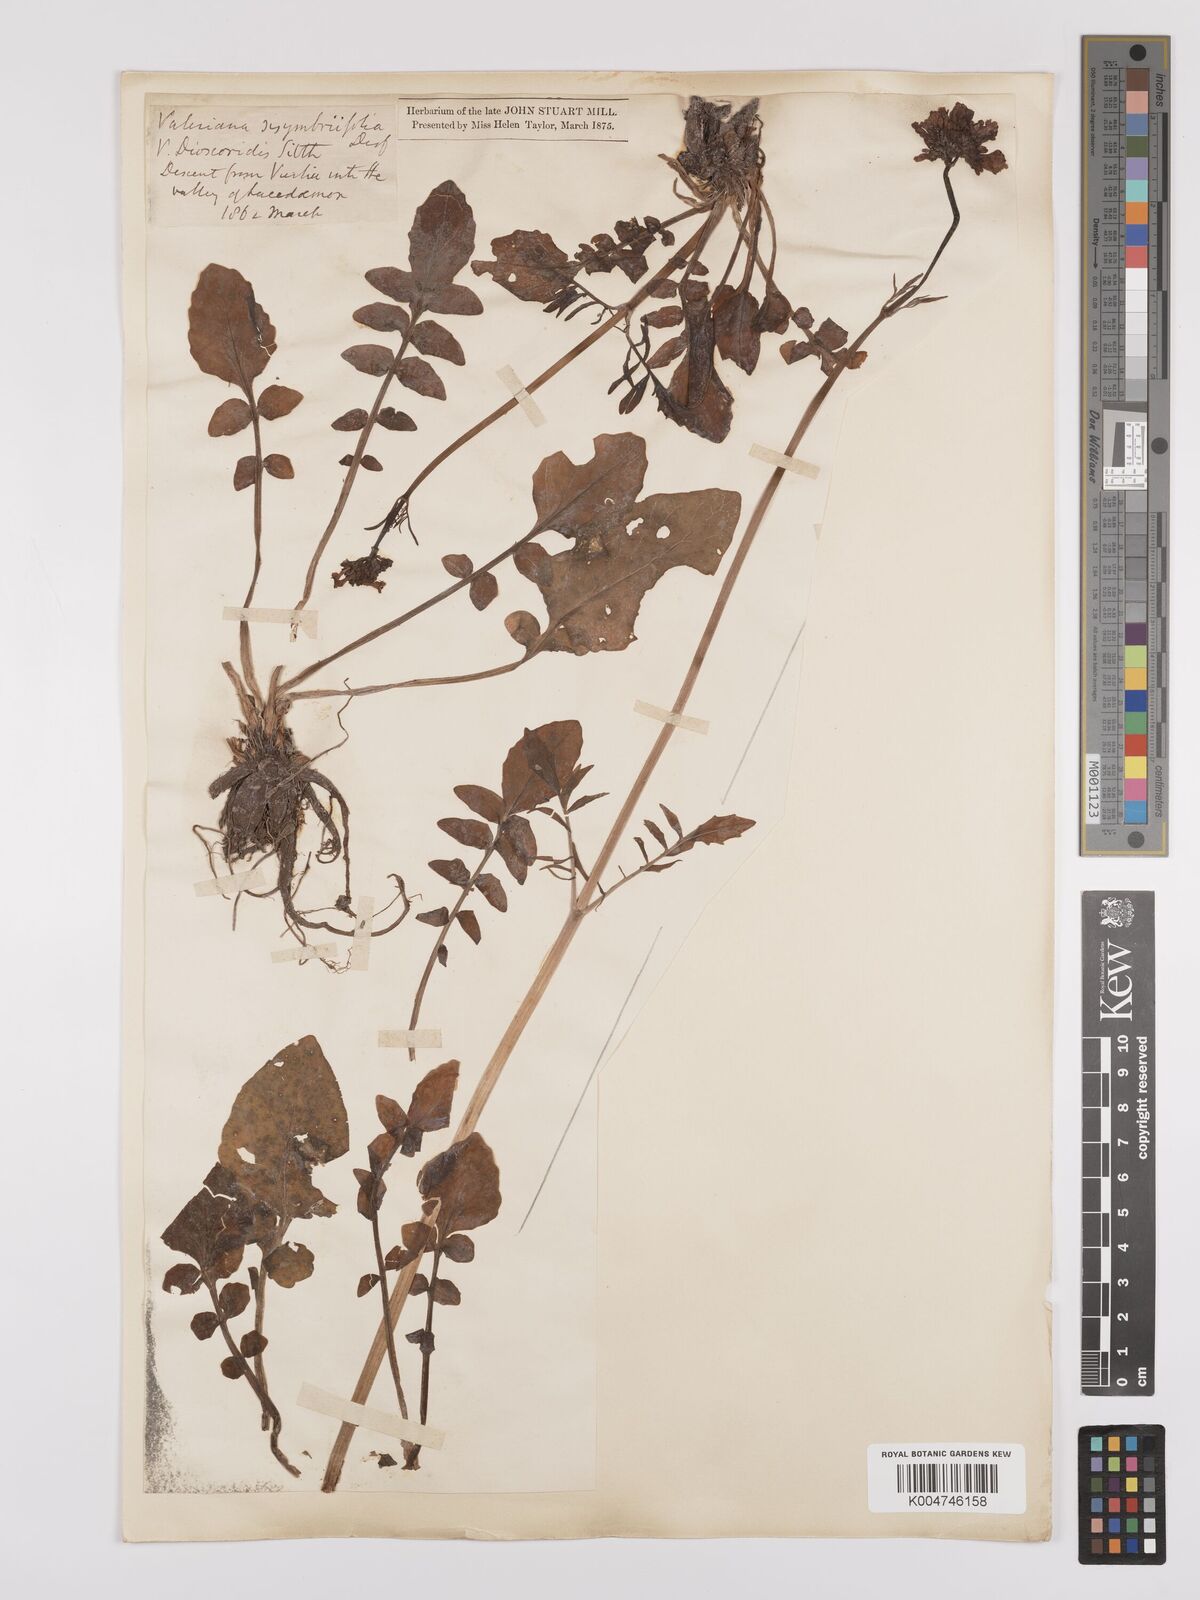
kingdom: Plantae
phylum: Tracheophyta
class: Magnoliopsida
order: Dipsacales
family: Caprifoliaceae
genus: Valeriana
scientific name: Valeriana dioscoridis
